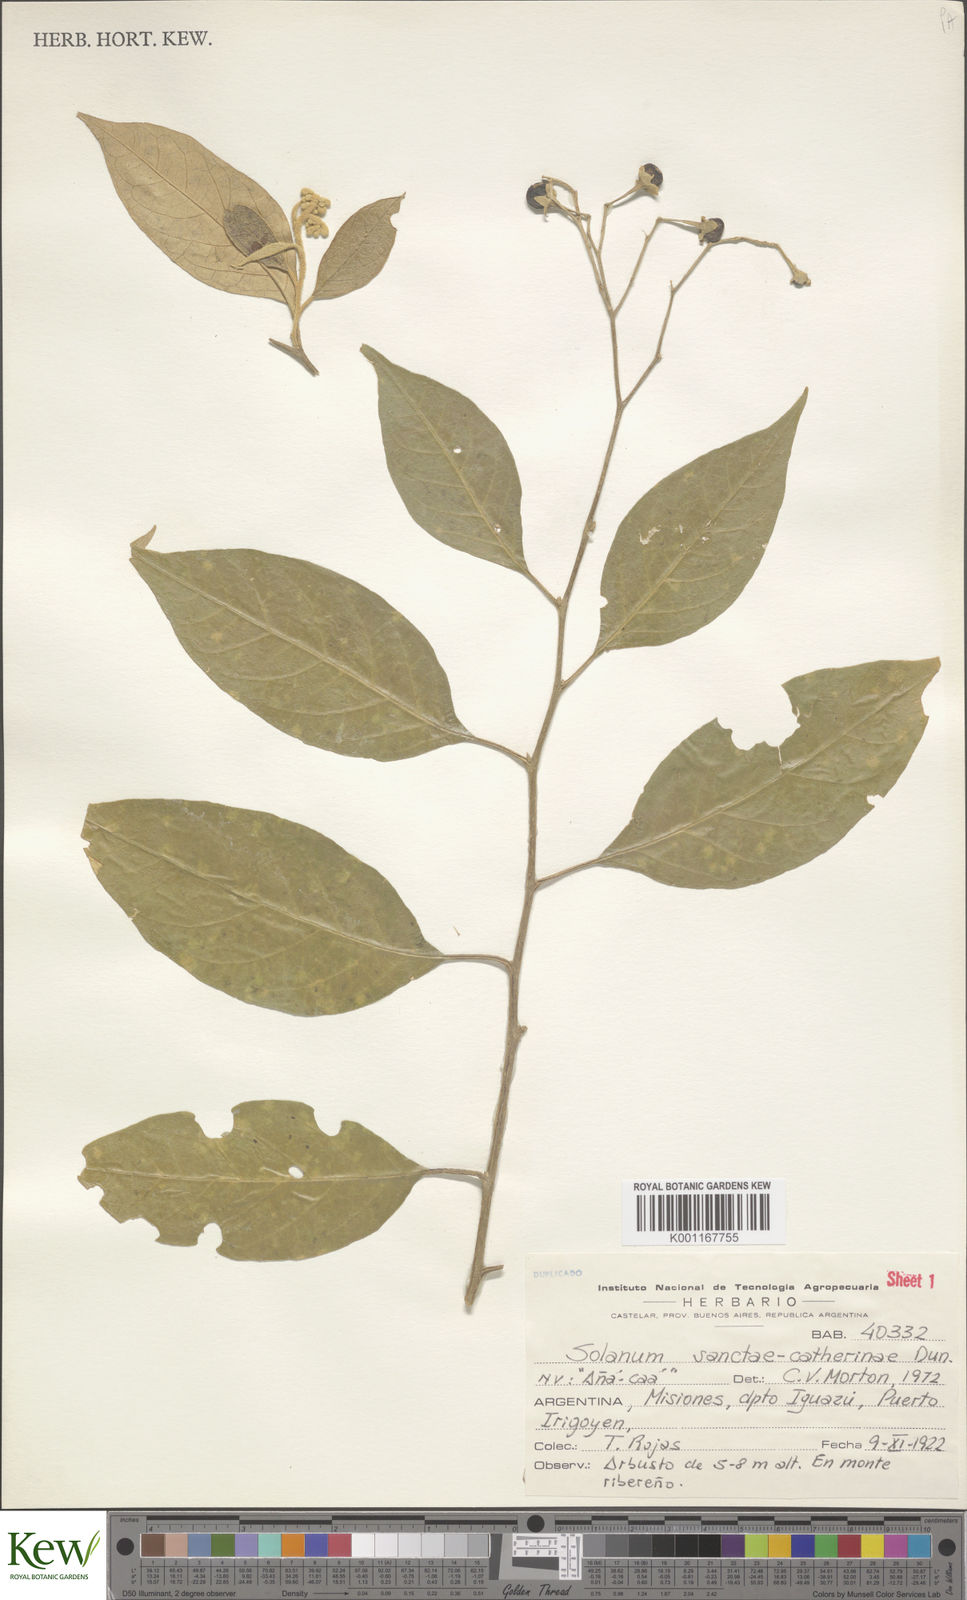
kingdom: Plantae
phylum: Tracheophyta
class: Magnoliopsida
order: Solanales
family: Solanaceae
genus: Solanum
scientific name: Solanum sanctae-catharinae
